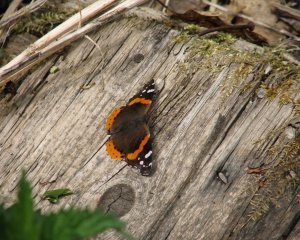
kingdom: Animalia
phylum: Arthropoda
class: Insecta
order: Lepidoptera
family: Nymphalidae
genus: Vanessa
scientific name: Vanessa atalanta
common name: Red Admiral
